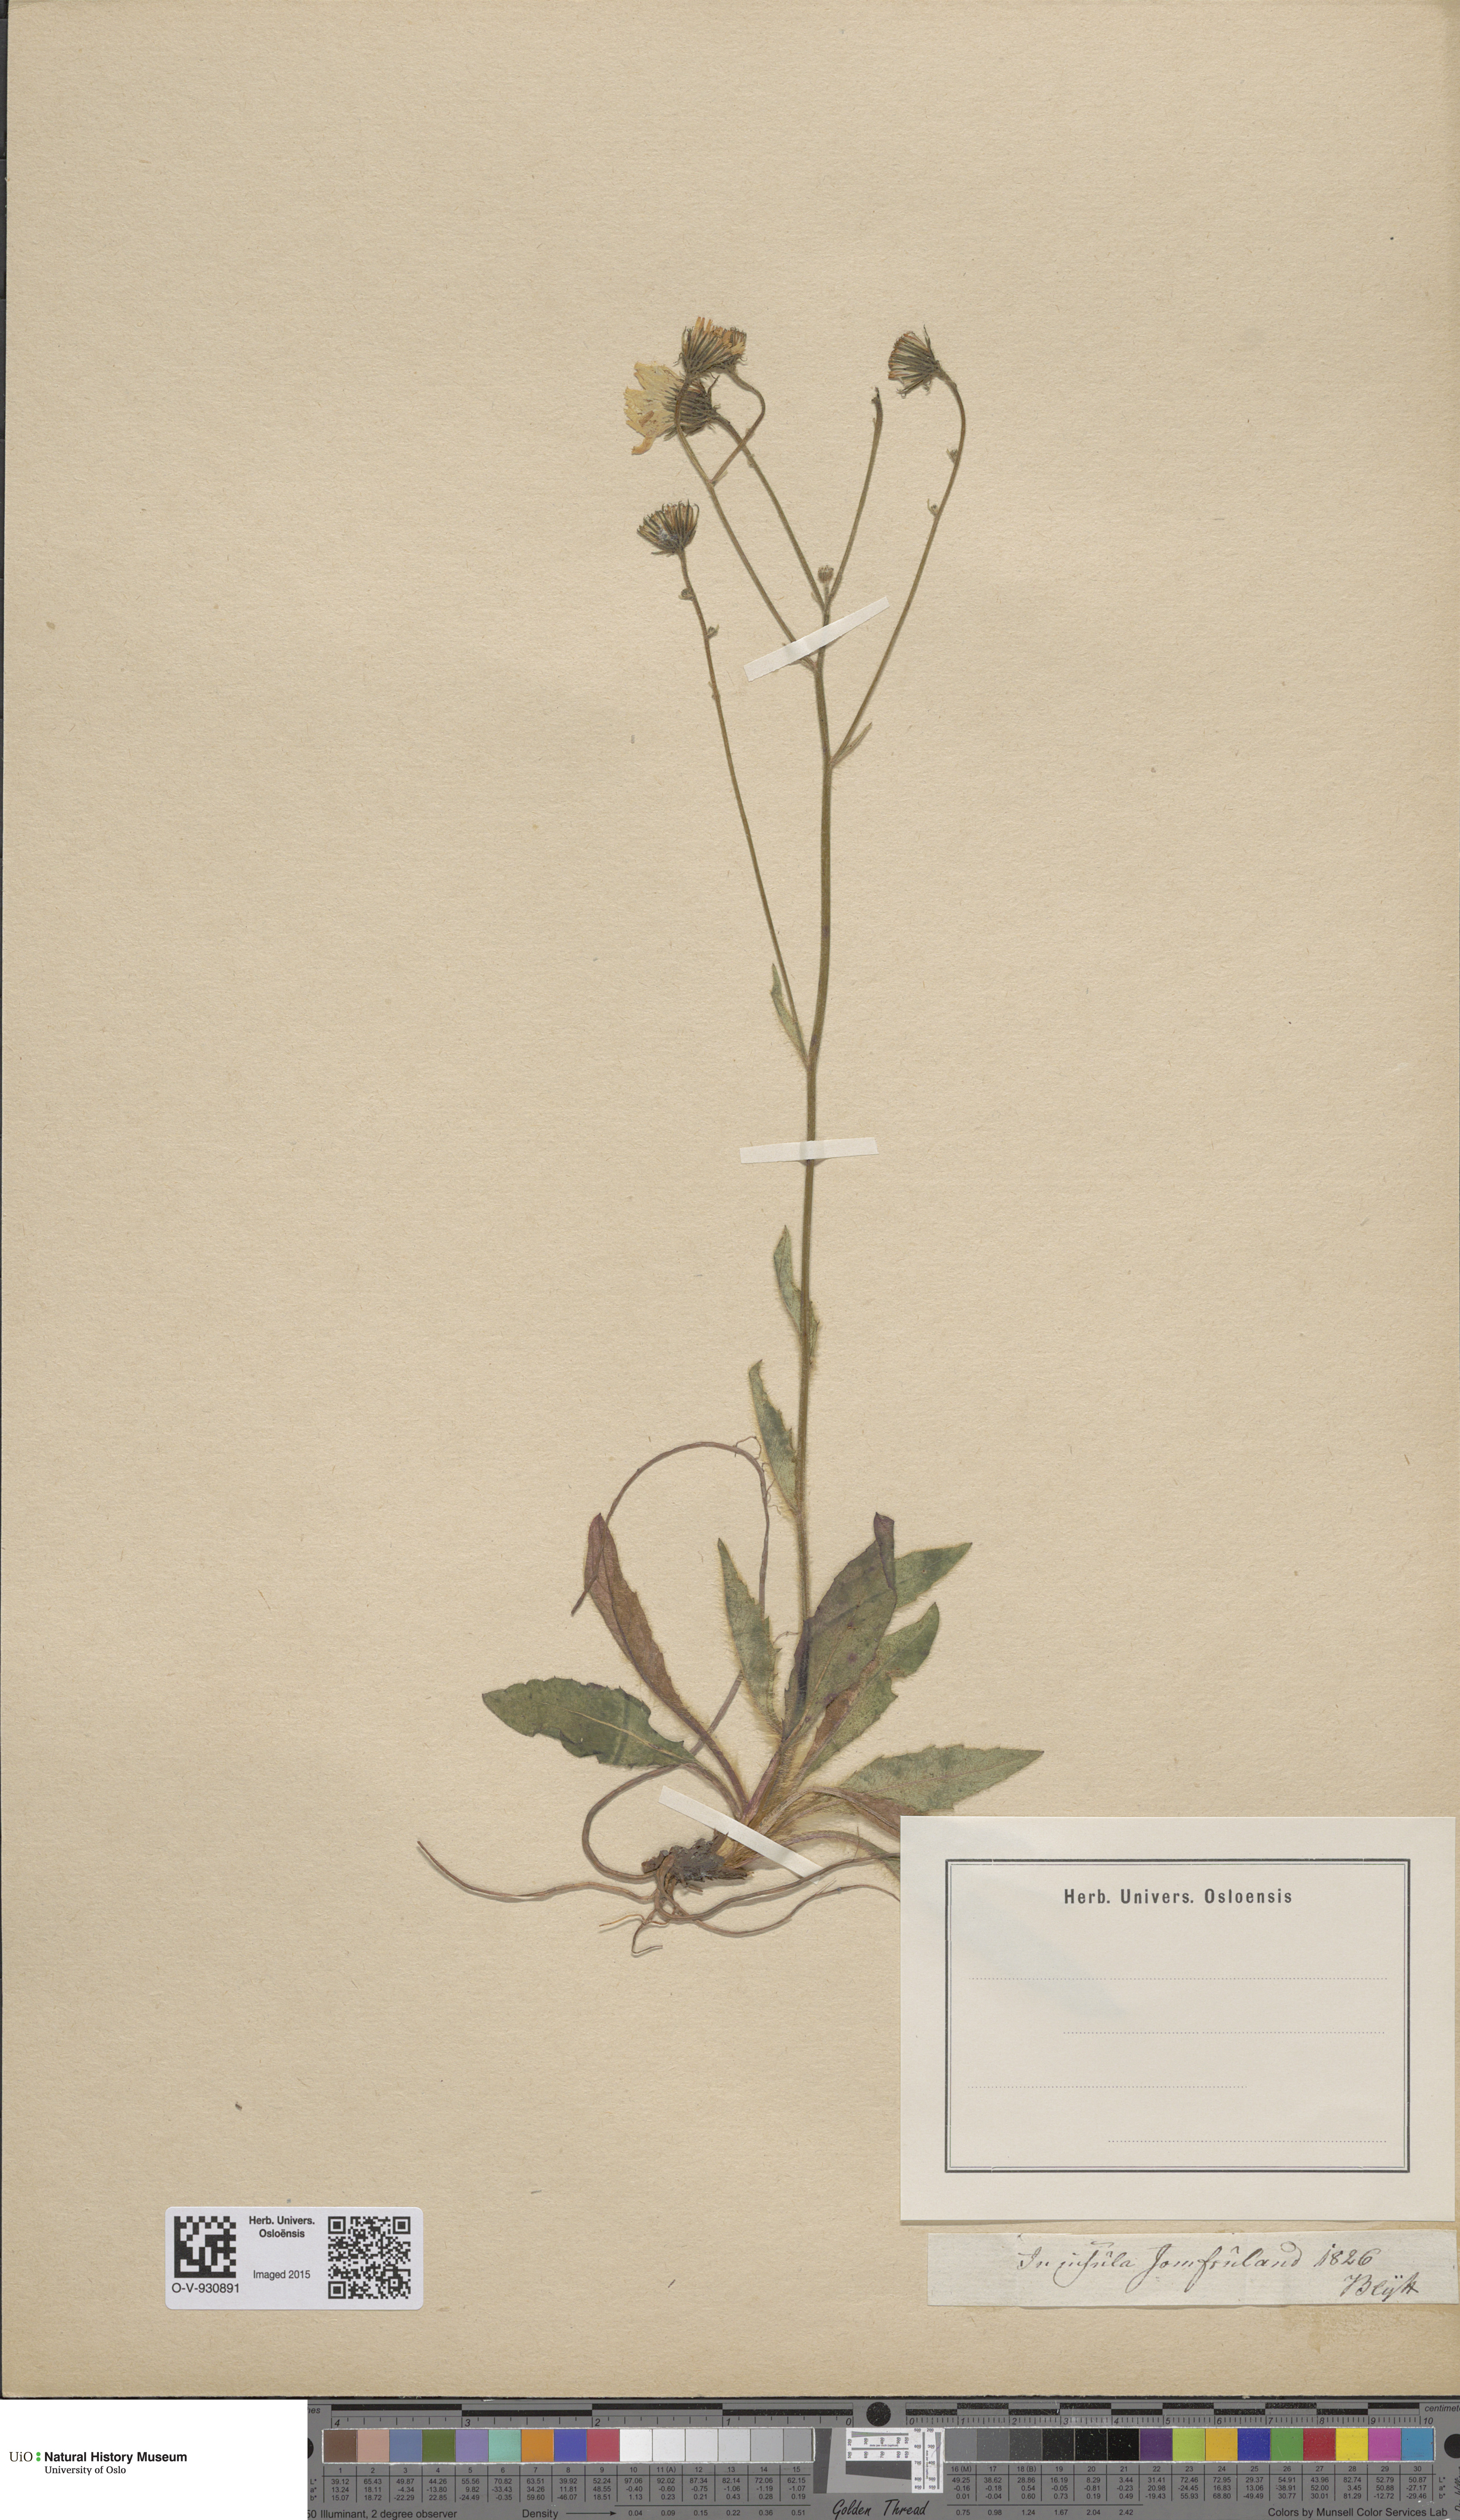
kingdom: Plantae
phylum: Tracheophyta
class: Magnoliopsida
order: Asterales
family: Asteraceae
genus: Hieracium
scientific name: Hieracium saxifragum
